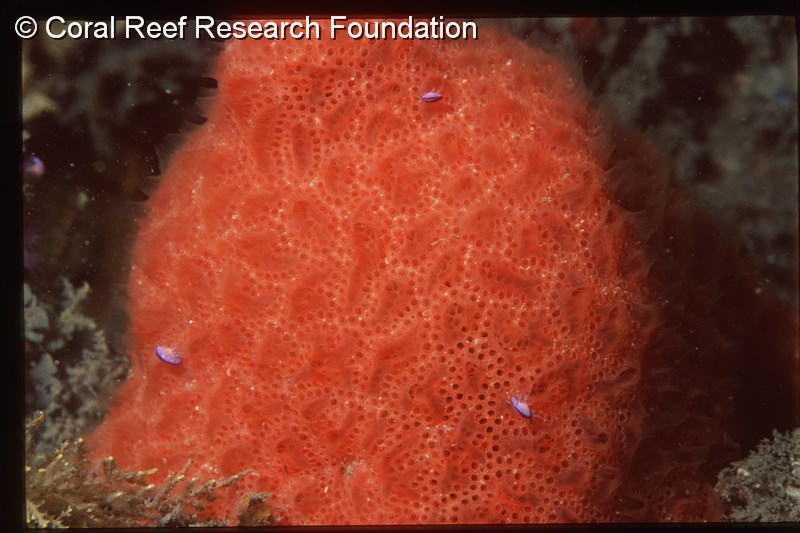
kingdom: Animalia
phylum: Chordata
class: Ascidiacea
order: Aplousobranchia
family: Polyclinidae
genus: Aplidium
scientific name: Aplidium
